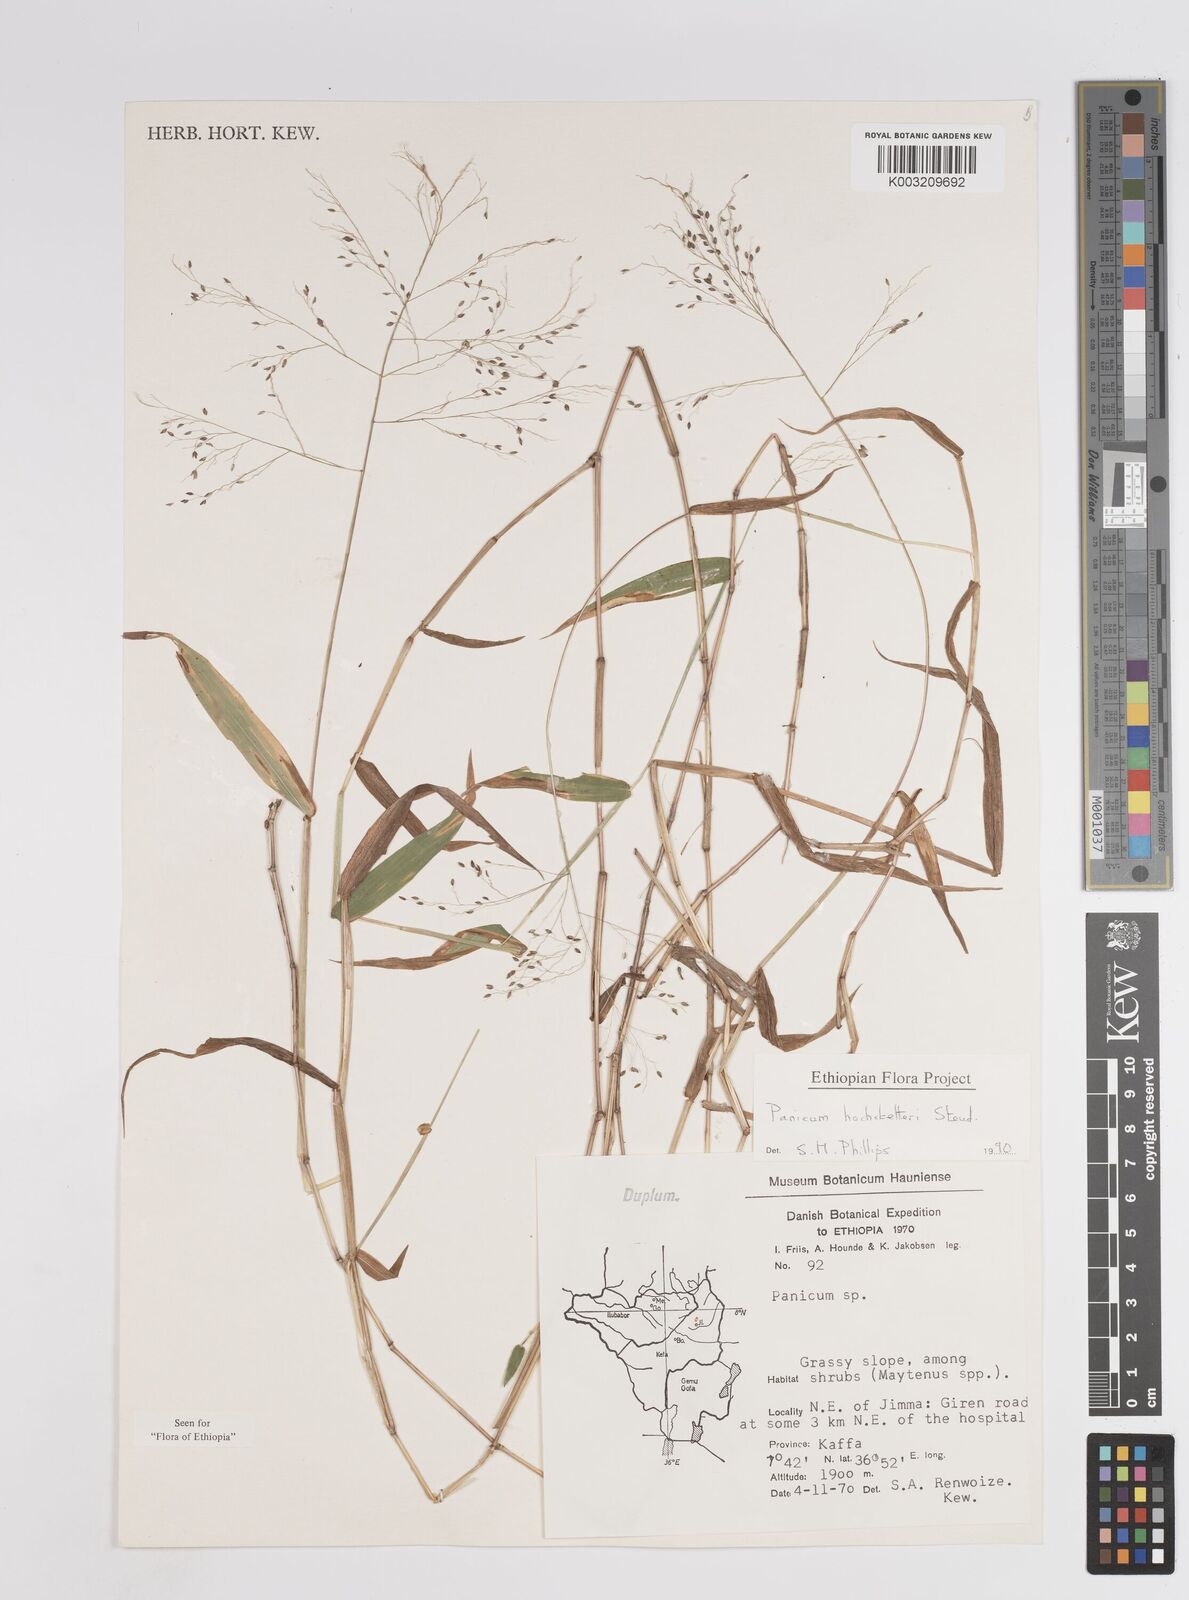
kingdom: Plantae
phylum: Tracheophyta
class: Liliopsida
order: Poales
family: Poaceae
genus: Panicum
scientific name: Panicum hochstetteri
